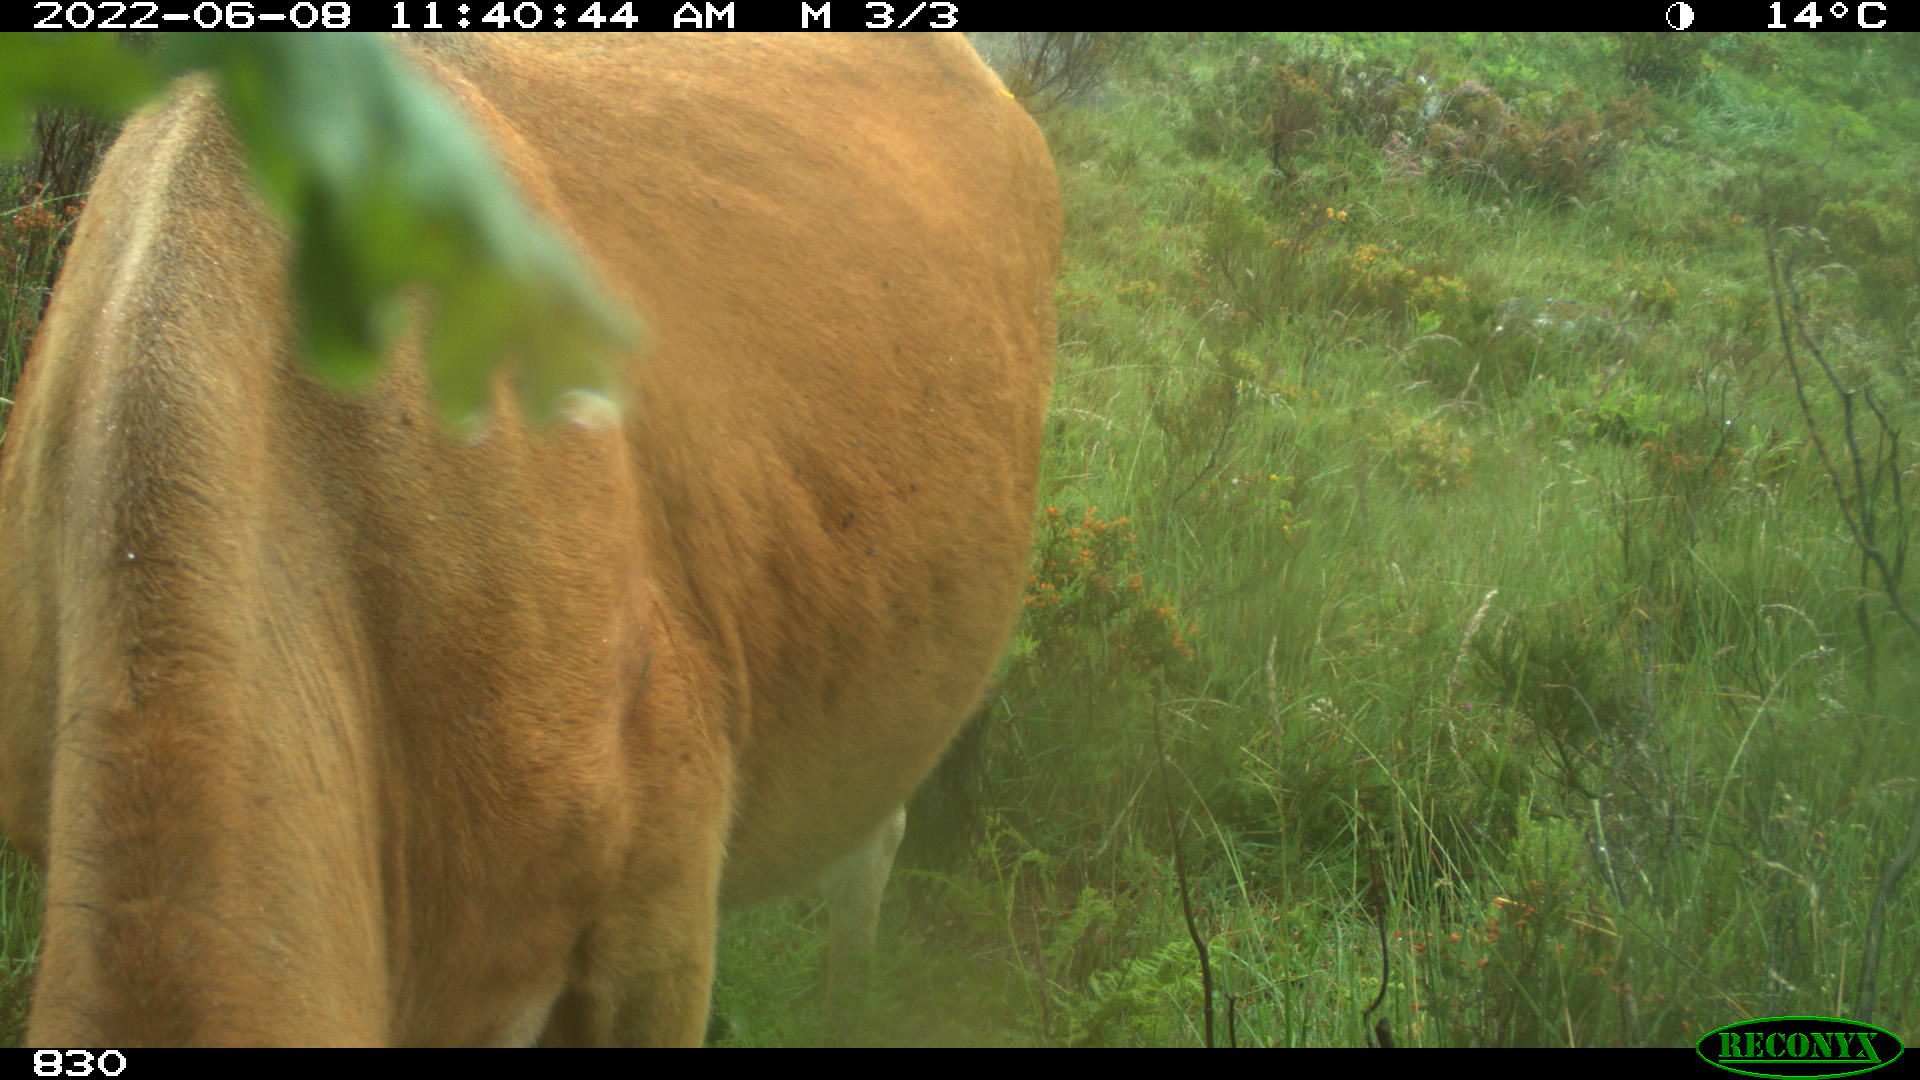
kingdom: Animalia
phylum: Chordata
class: Mammalia
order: Artiodactyla
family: Bovidae
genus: Bos
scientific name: Bos taurus
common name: Domesticated cattle
